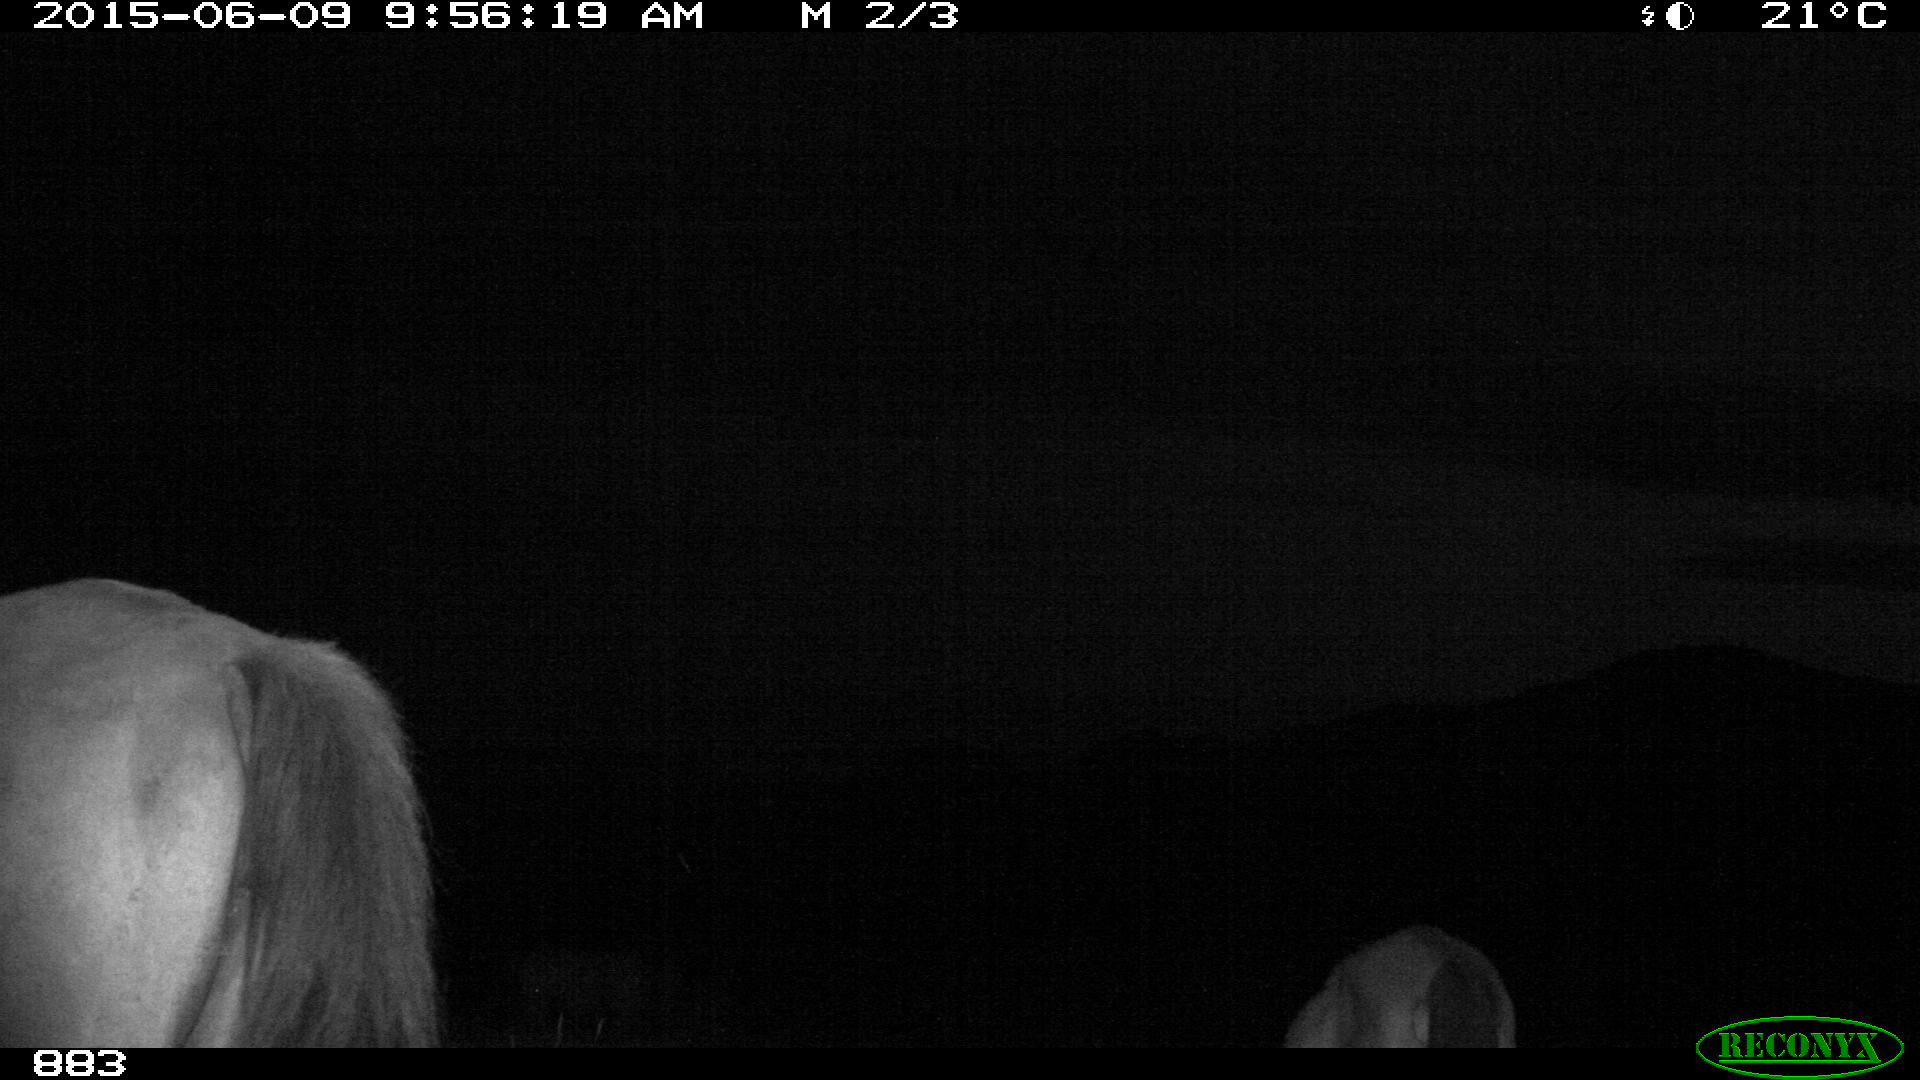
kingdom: Animalia
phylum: Chordata
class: Mammalia
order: Perissodactyla
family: Equidae
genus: Equus
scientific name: Equus caballus
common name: Horse
